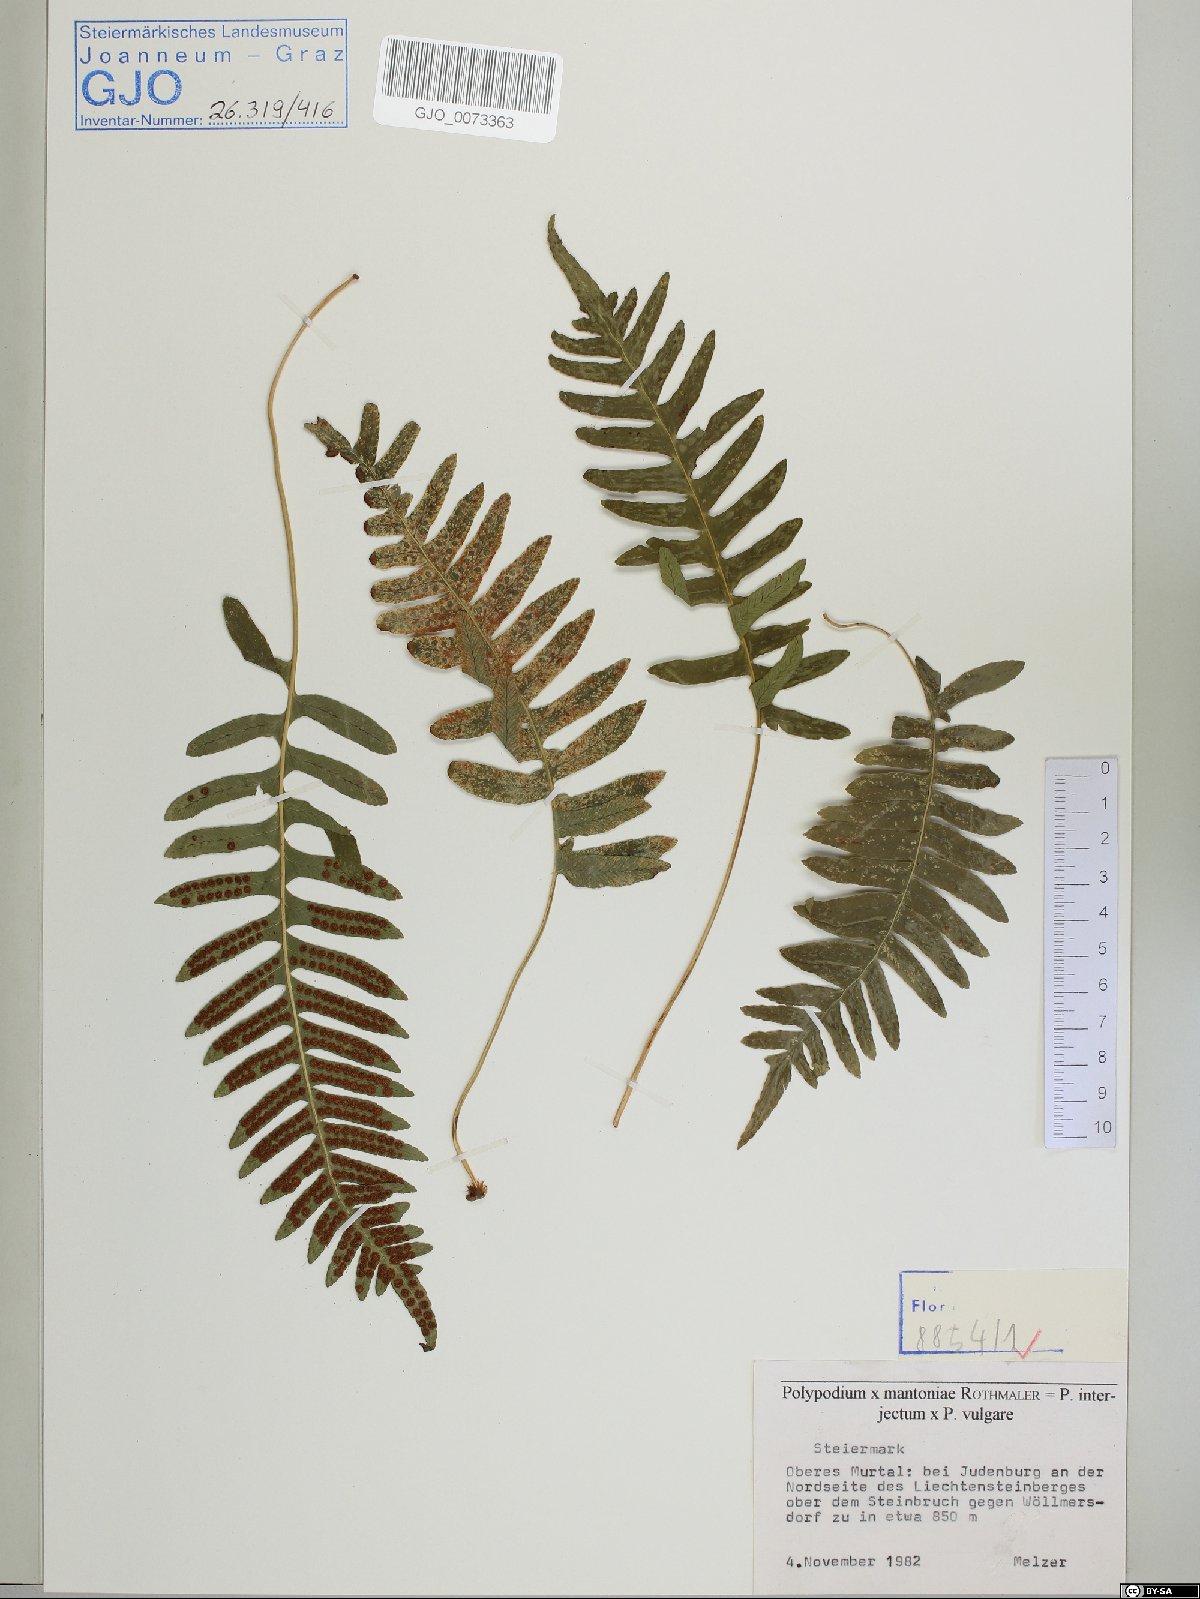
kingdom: Plantae
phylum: Tracheophyta
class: Polypodiopsida
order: Polypodiales
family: Polypodiaceae
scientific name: Polypodiaceae
